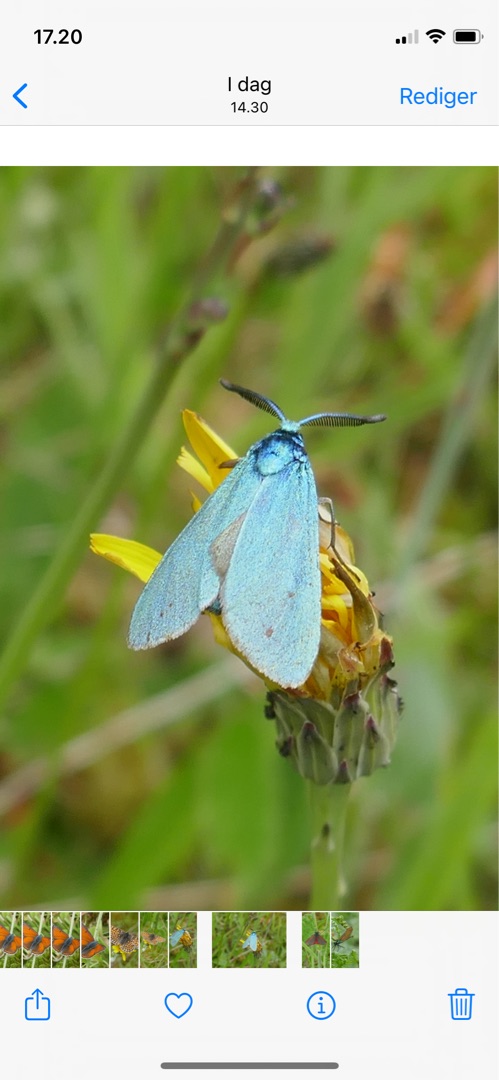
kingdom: Animalia
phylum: Arthropoda
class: Insecta
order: Lepidoptera
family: Zygaenidae
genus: Adscita
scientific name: Adscita statices
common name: Metalvinge
